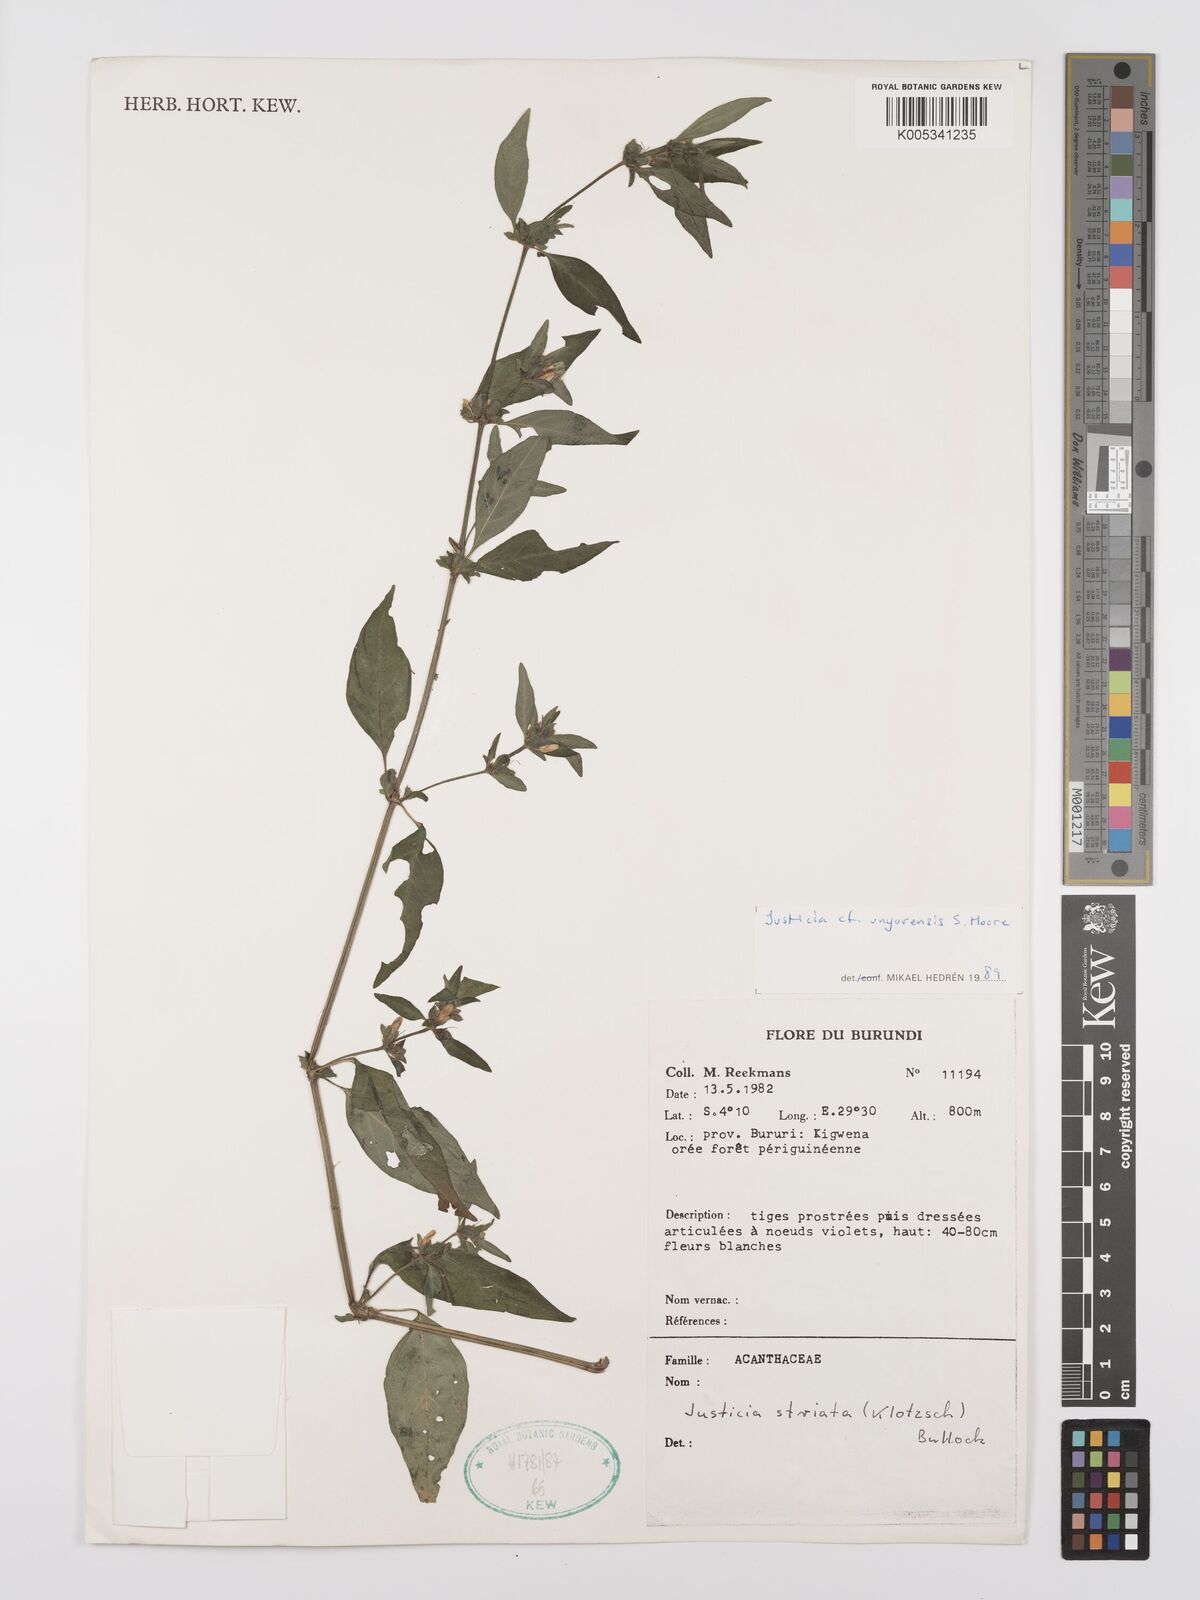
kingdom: Plantae
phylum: Tracheophyta
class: Magnoliopsida
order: Lamiales
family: Acanthaceae
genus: Justicia
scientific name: Justicia unyorensis
